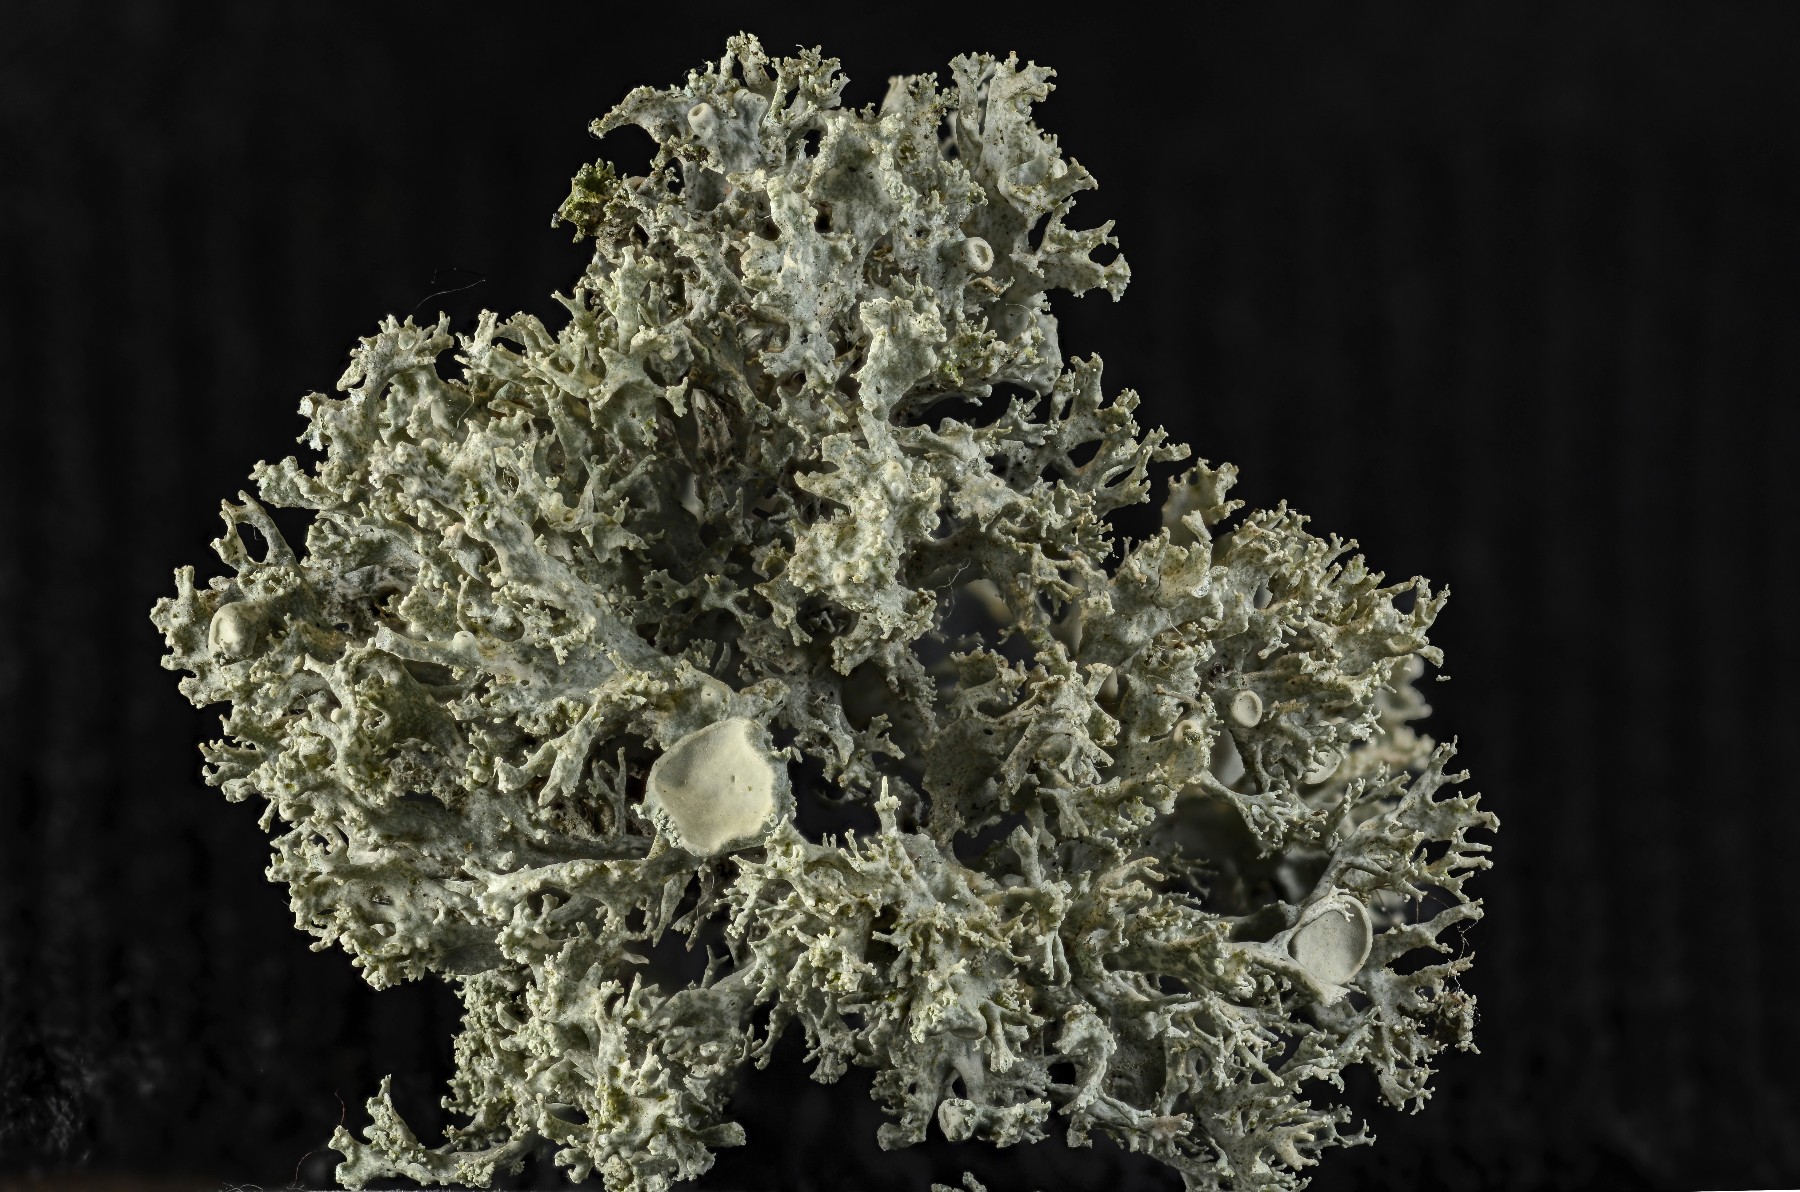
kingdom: Fungi
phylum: Ascomycota
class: Lecanoromycetes
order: Lecanorales
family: Ramalinaceae
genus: Ramalina
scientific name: Ramalina fastigiata
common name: tue-grenlav
